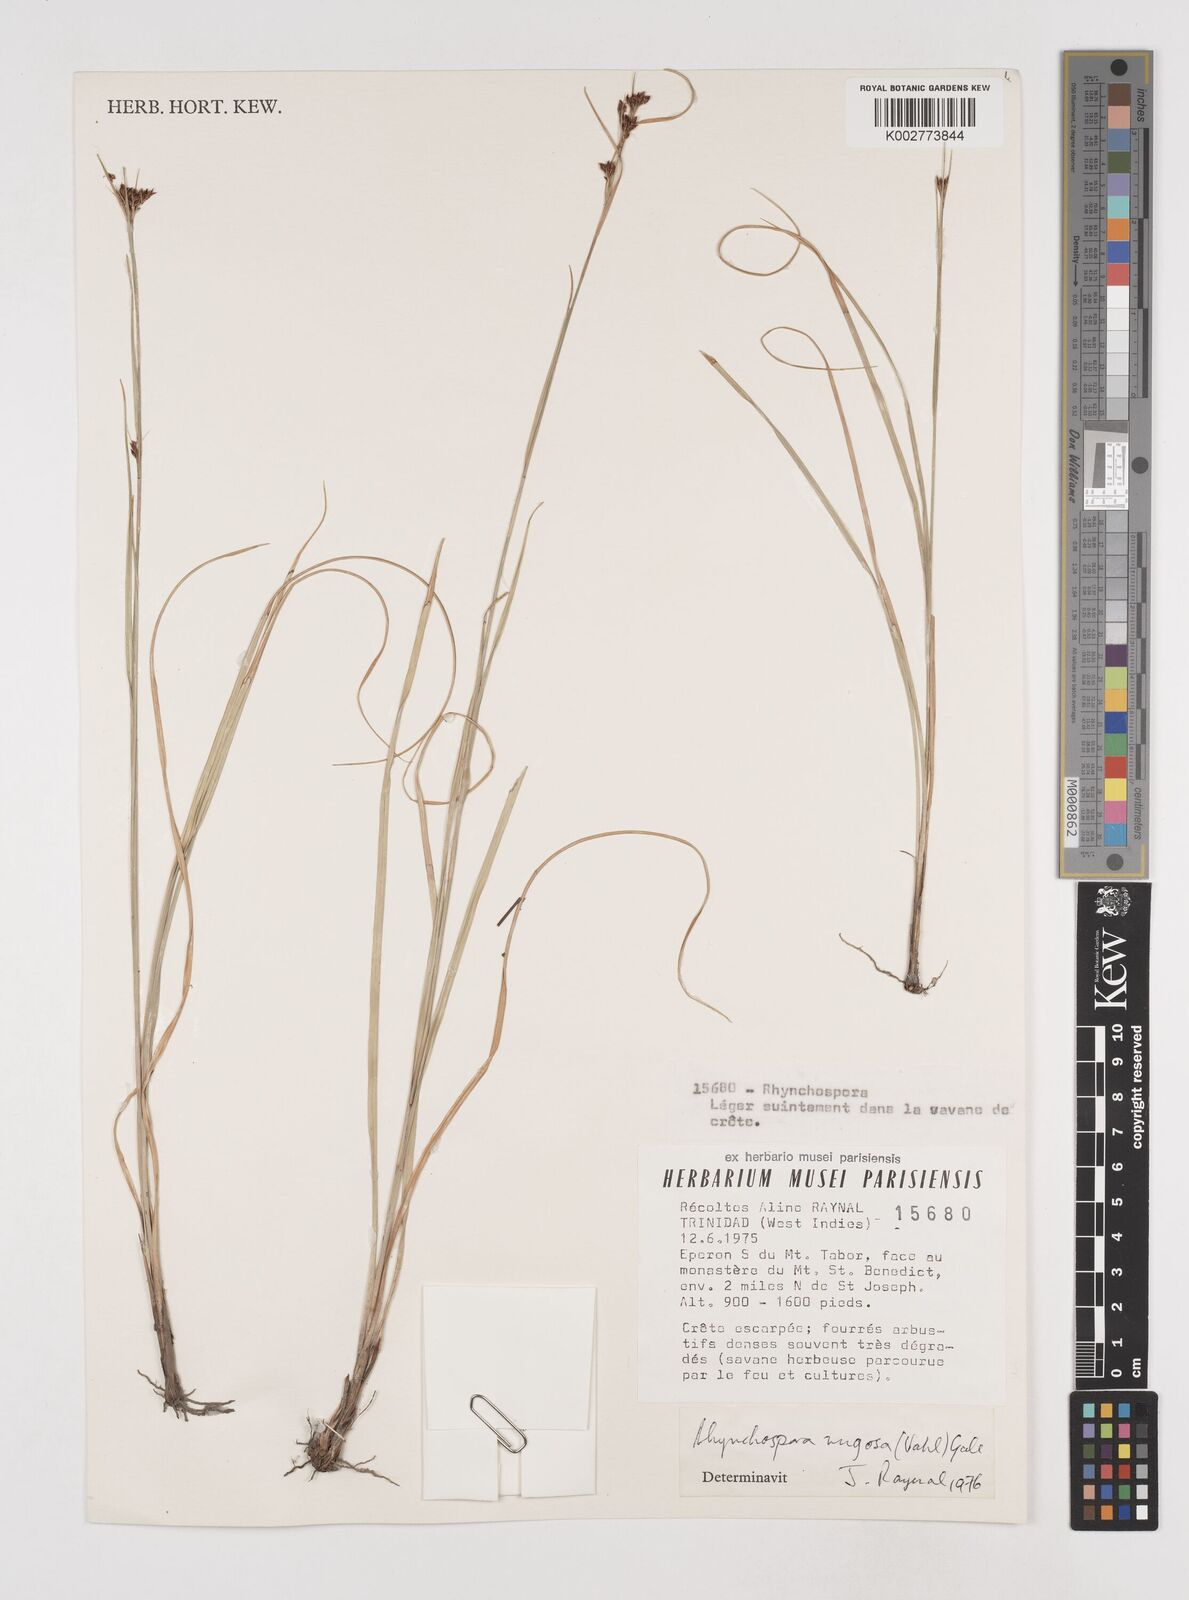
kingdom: Plantae
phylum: Tracheophyta
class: Liliopsida
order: Poales
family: Cyperaceae
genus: Rhynchospora
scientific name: Rhynchospora rugosa
